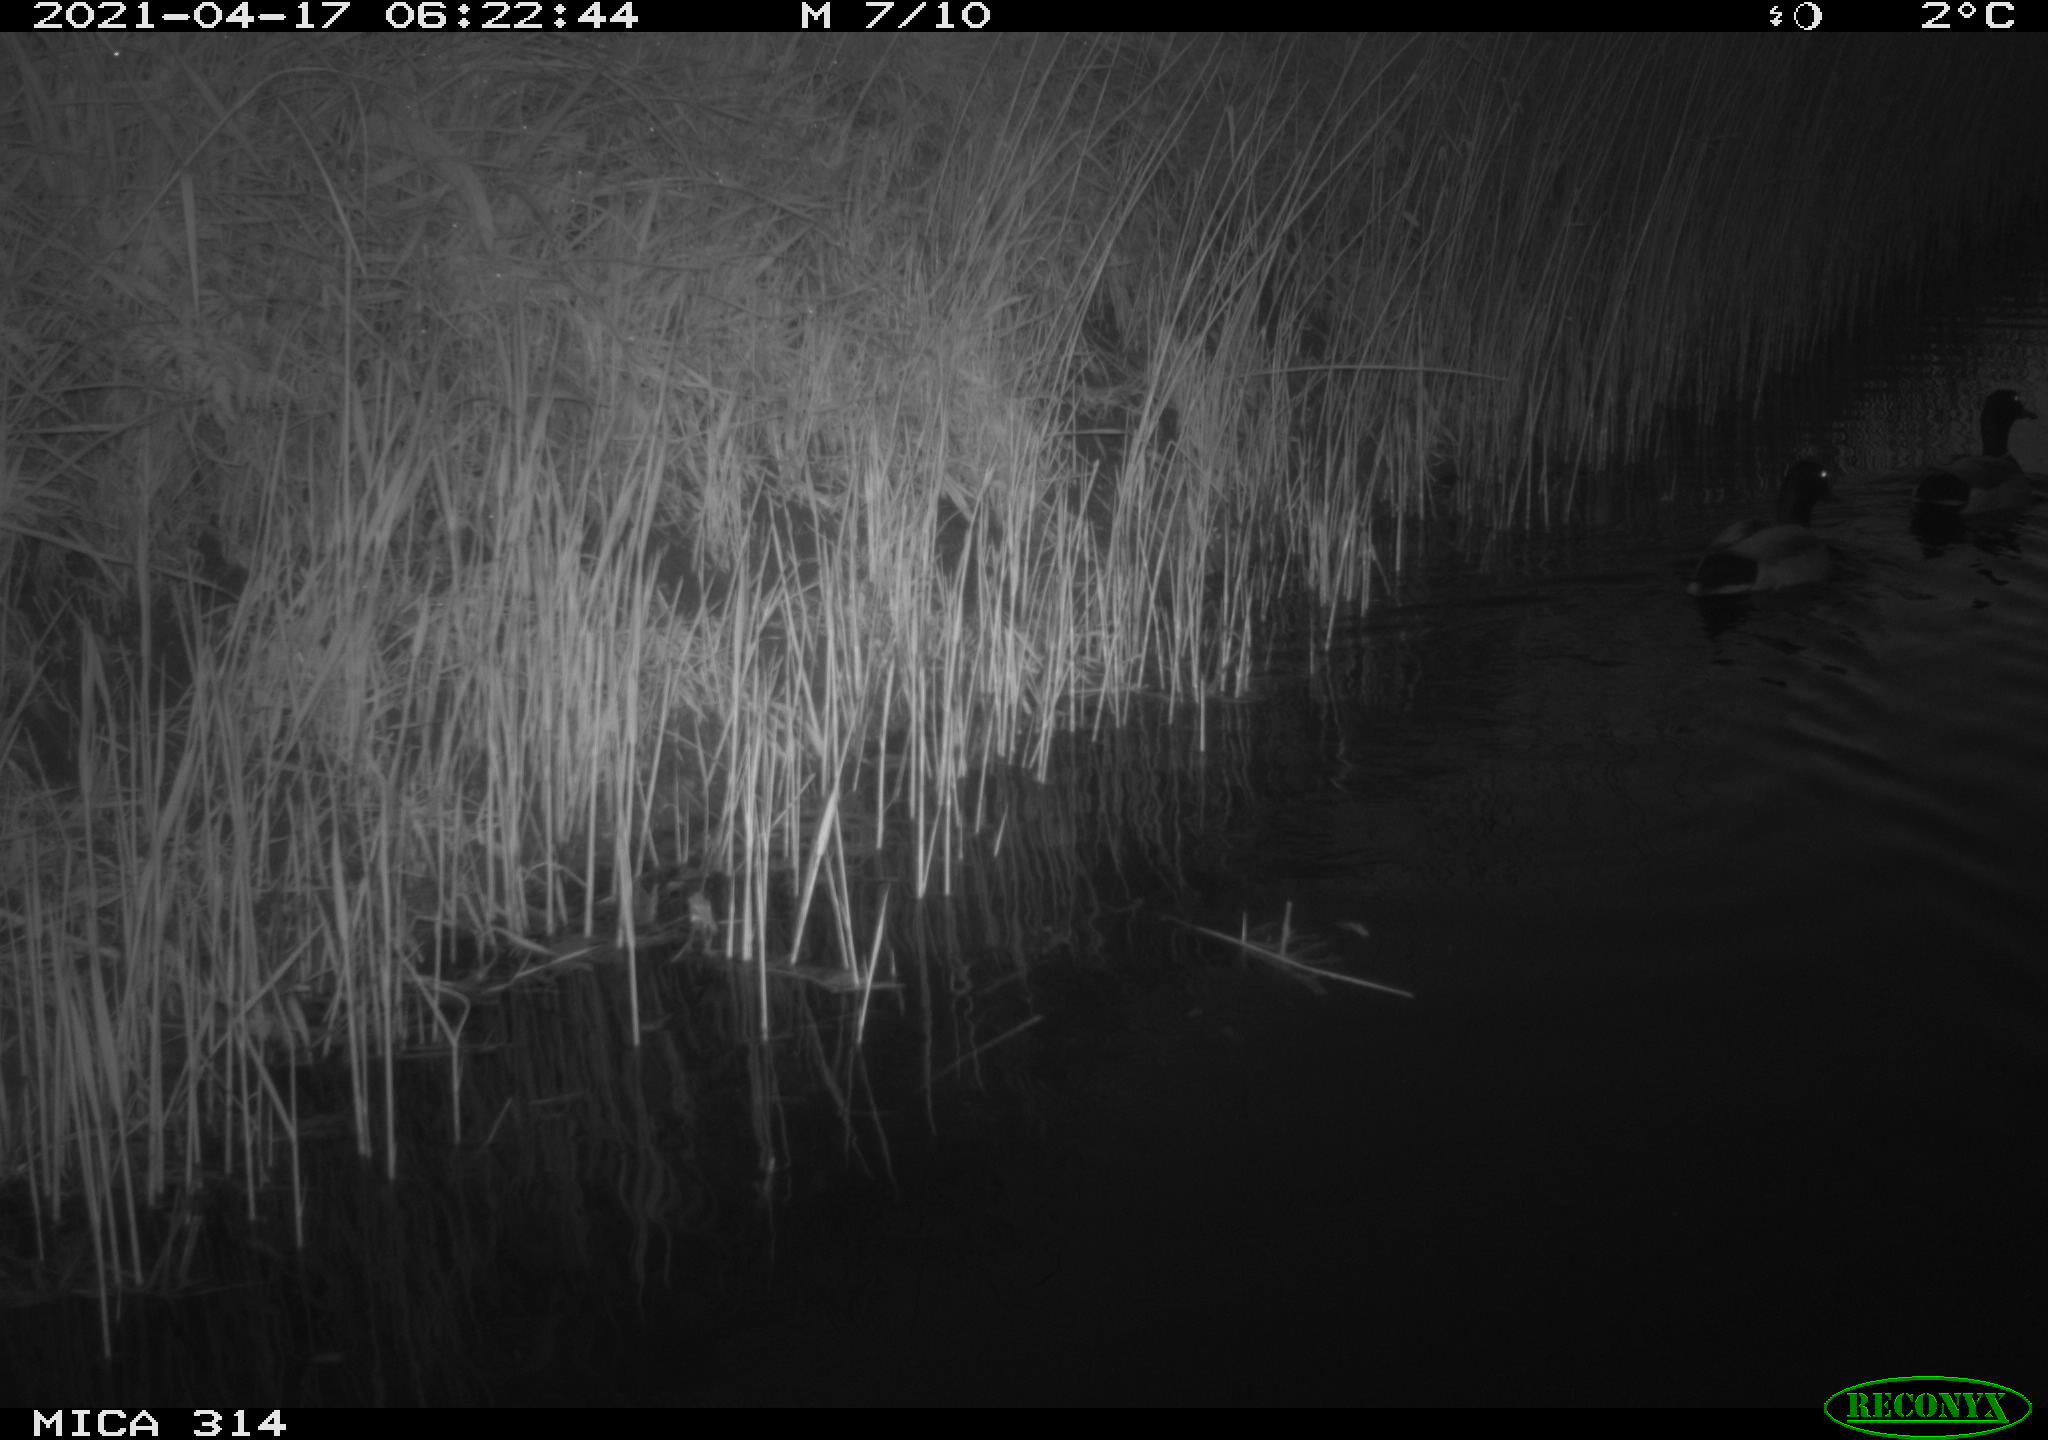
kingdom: Animalia
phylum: Chordata
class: Aves
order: Anseriformes
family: Anatidae
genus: Anas
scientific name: Anas platyrhynchos
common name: Mallard
